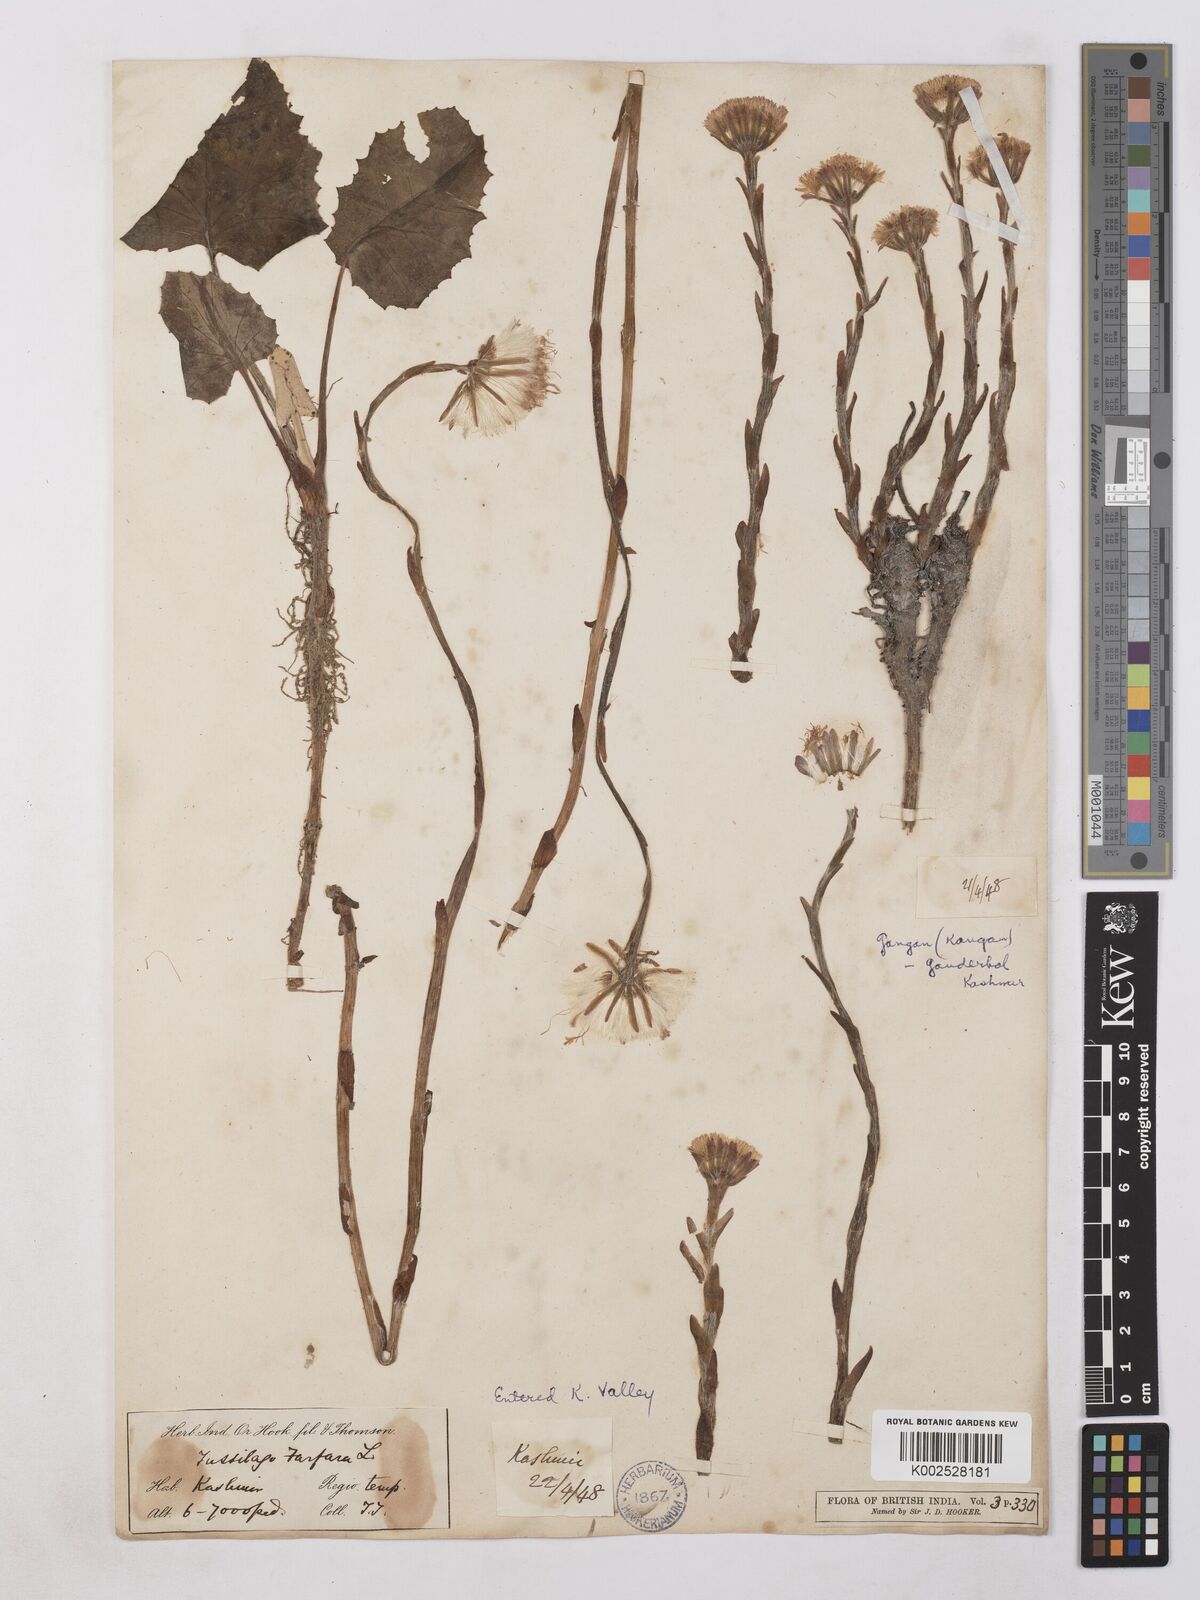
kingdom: Plantae
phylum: Tracheophyta
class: Magnoliopsida
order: Asterales
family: Asteraceae
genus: Tussilago
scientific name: Tussilago farfara
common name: Coltsfoot
